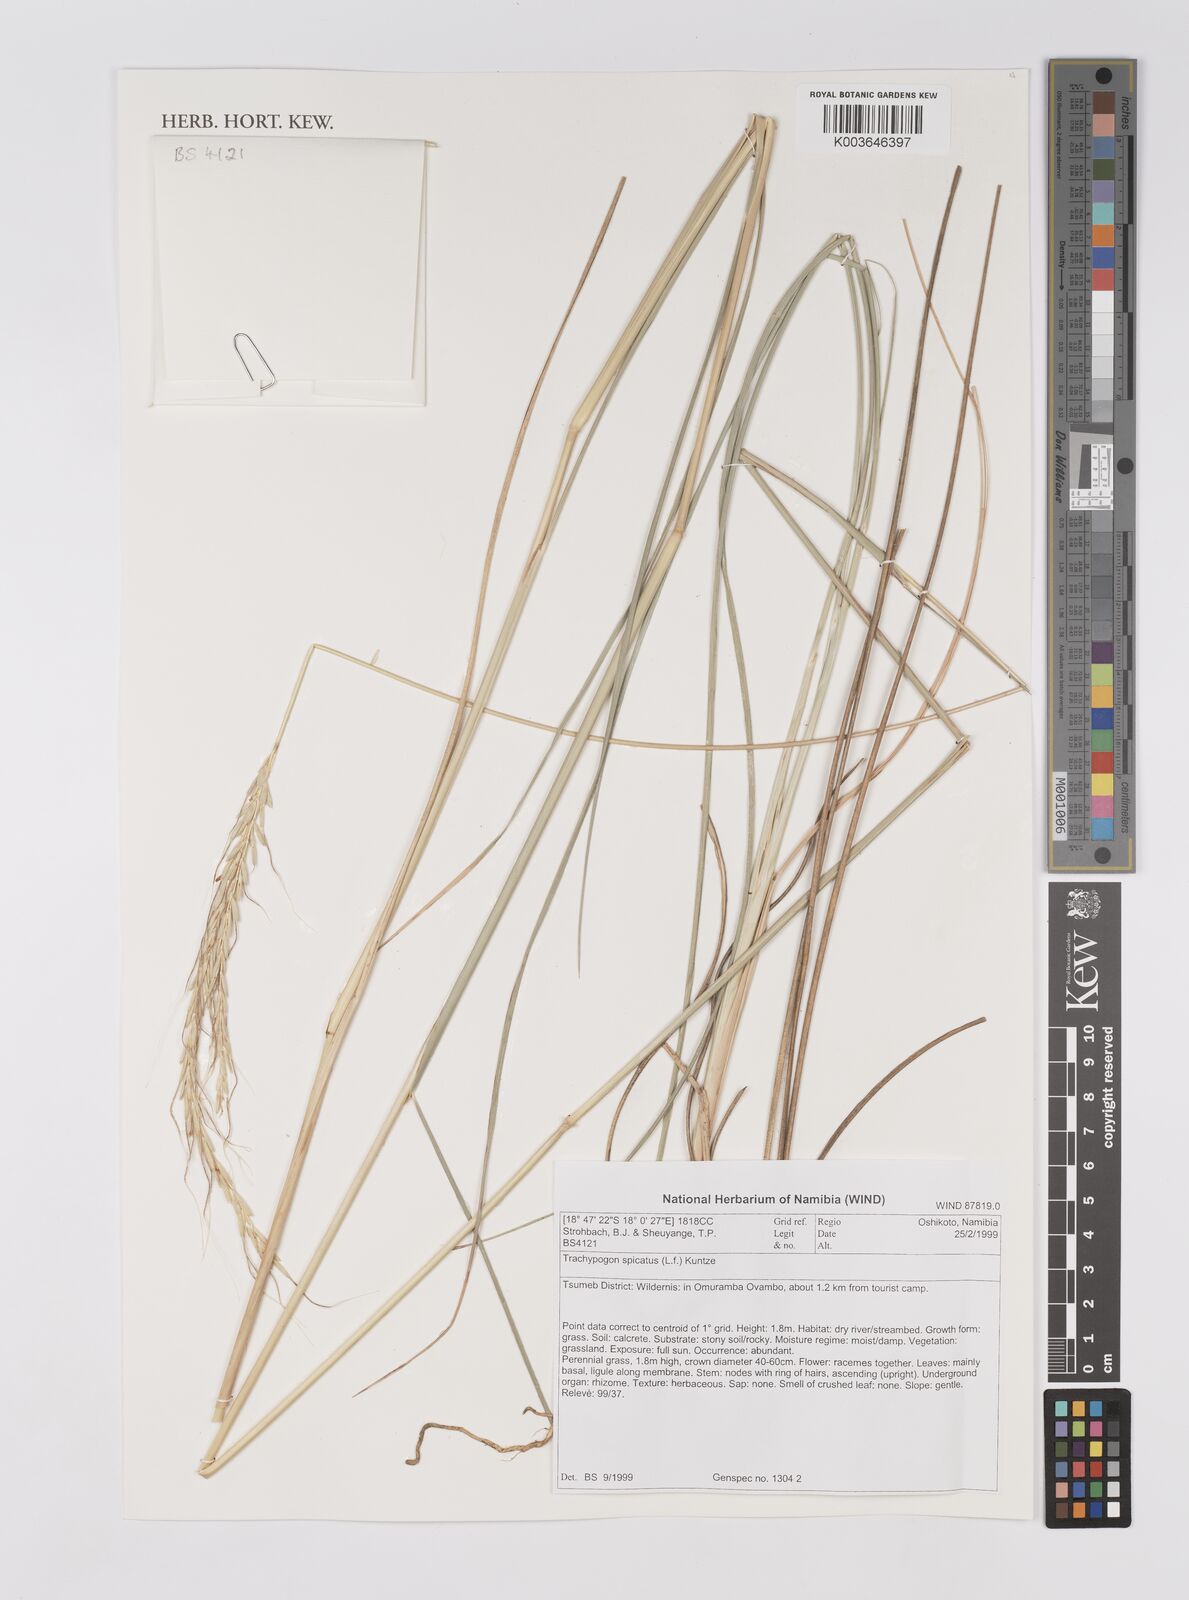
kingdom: Plantae
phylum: Tracheophyta
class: Liliopsida
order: Poales
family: Poaceae
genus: Trachypogon
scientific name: Trachypogon spicatus
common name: Crinkle-awn
